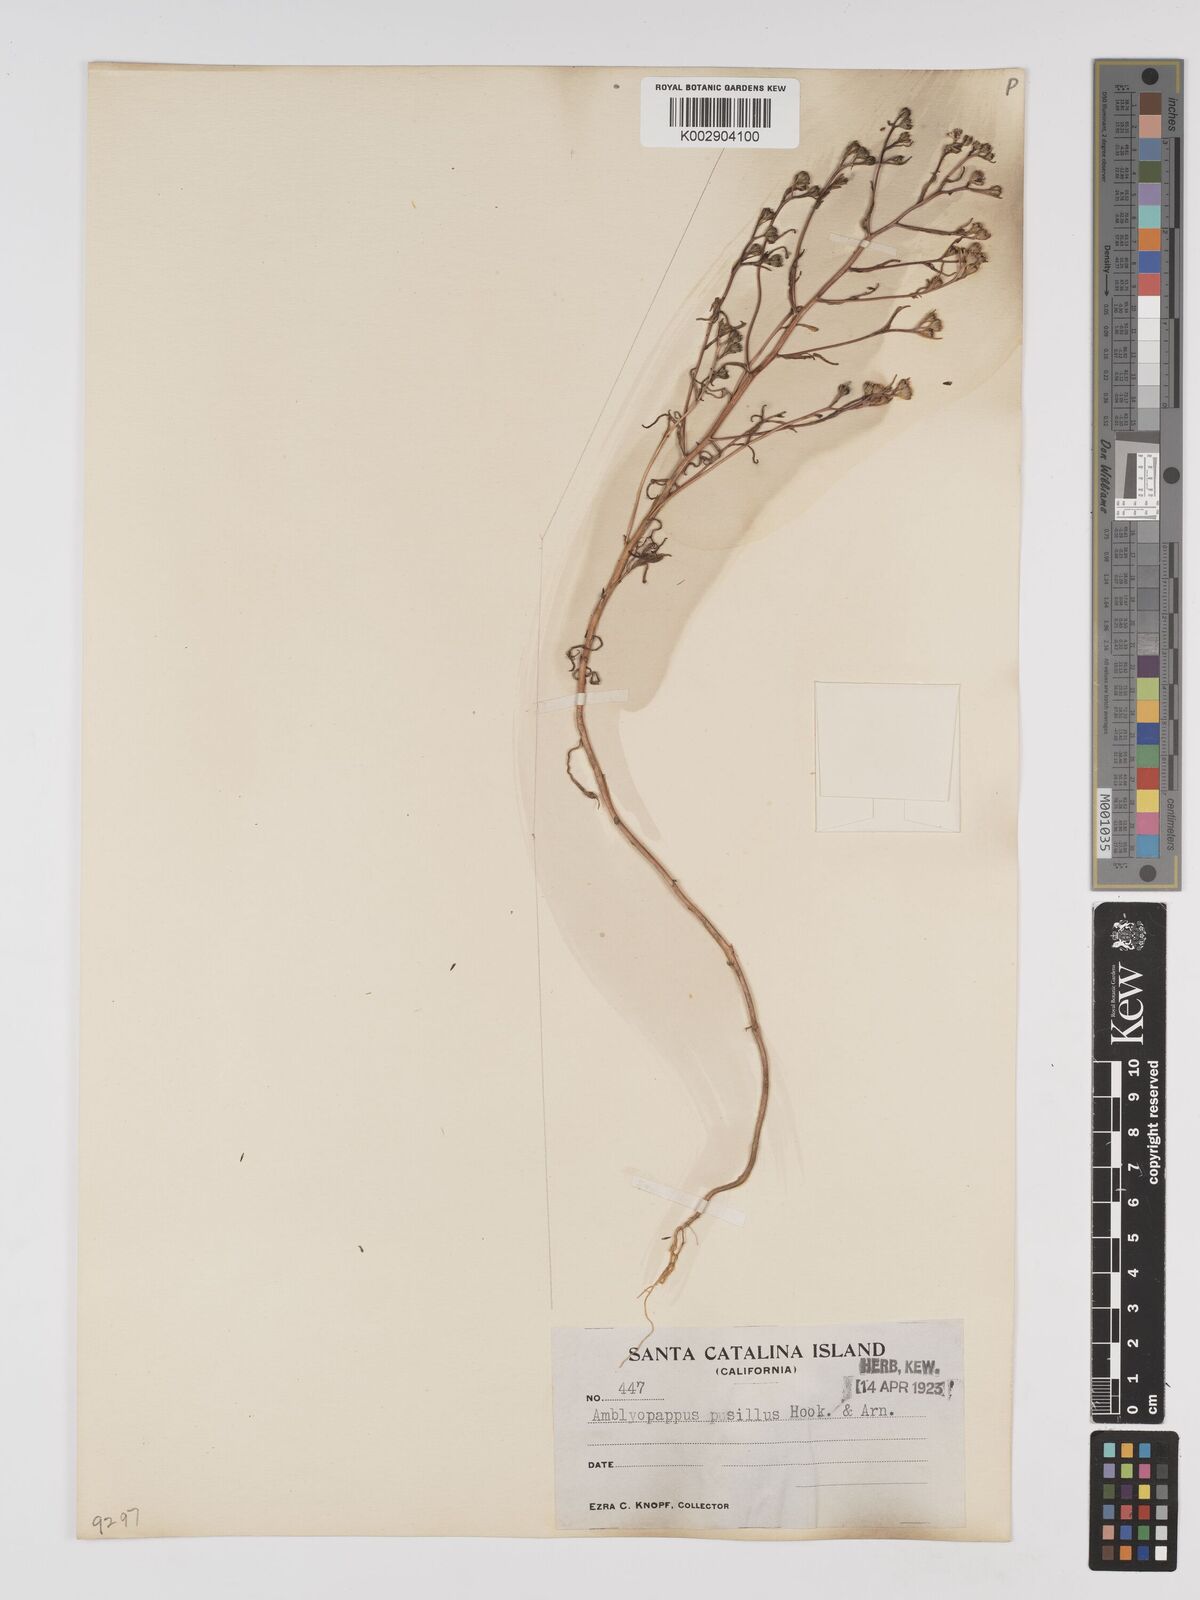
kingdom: Plantae
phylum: Tracheophyta
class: Magnoliopsida
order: Asterales
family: Asteraceae
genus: Amblyopappus
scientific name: Amblyopappus pusillus
